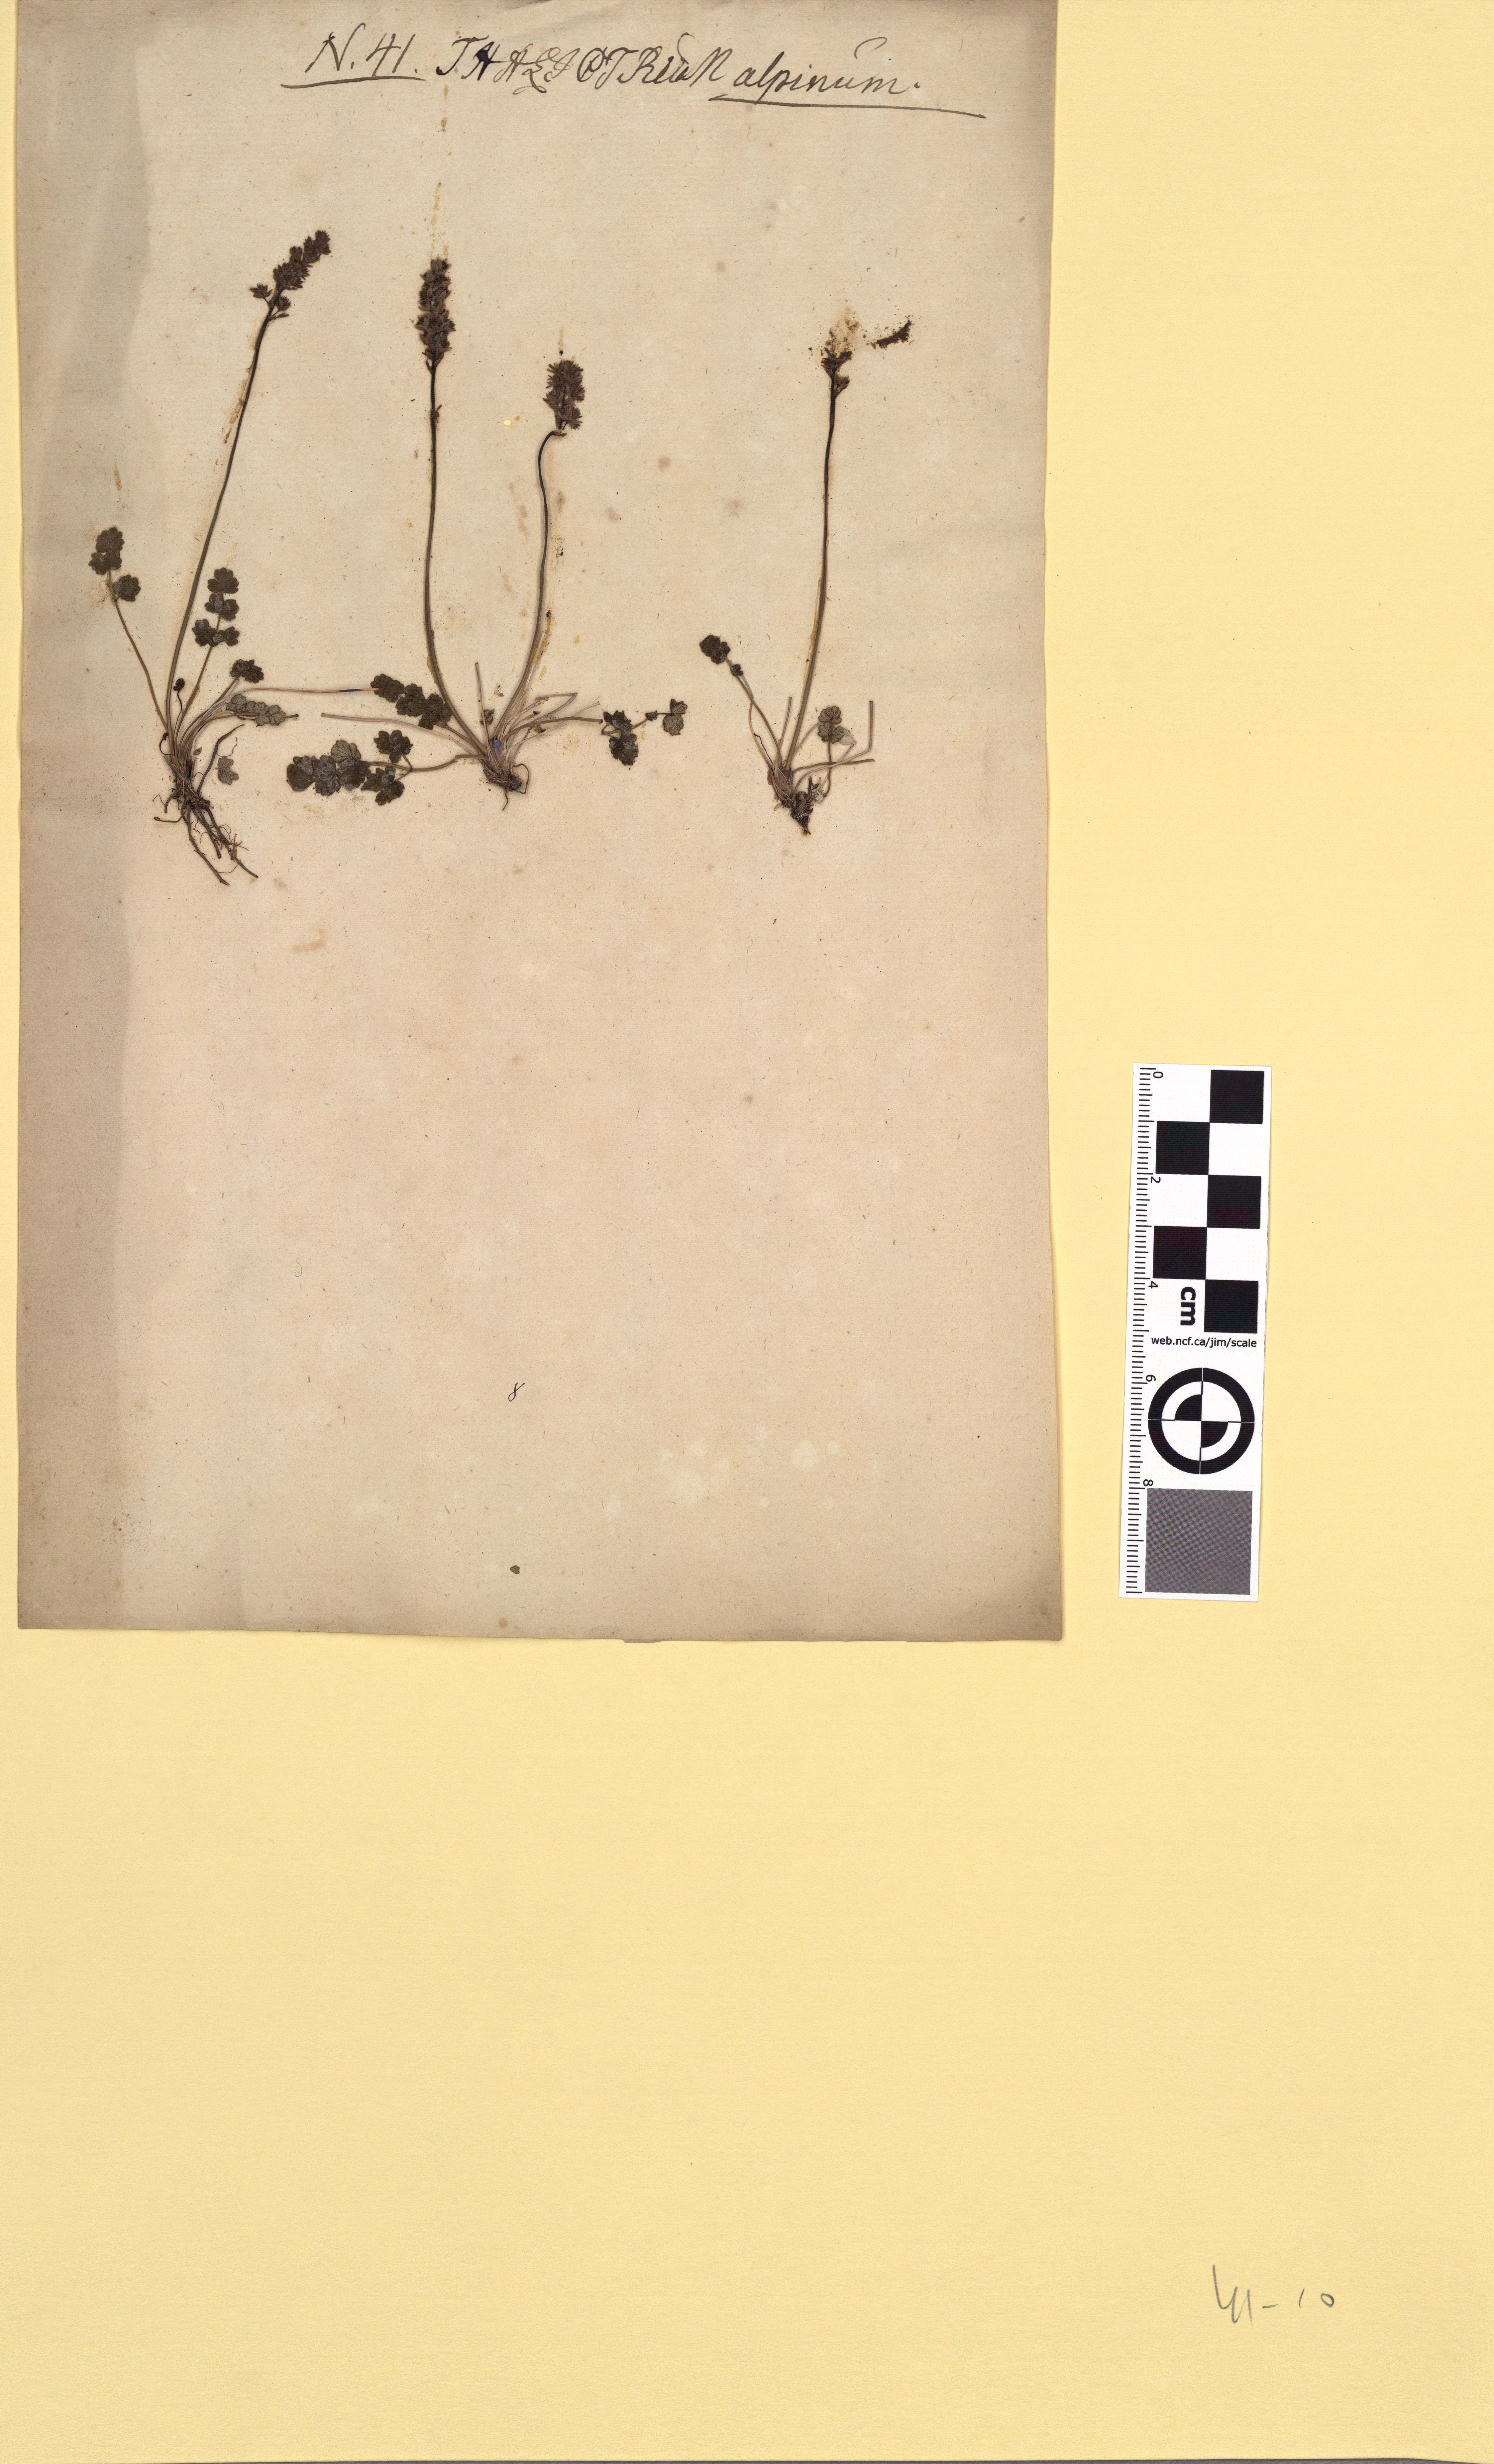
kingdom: Plantae
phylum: Tracheophyta
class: Magnoliopsida
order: Ranunculales
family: Ranunculaceae
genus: Thalictrum
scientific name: Thalictrum alpinum
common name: Alpine meadow-rue
